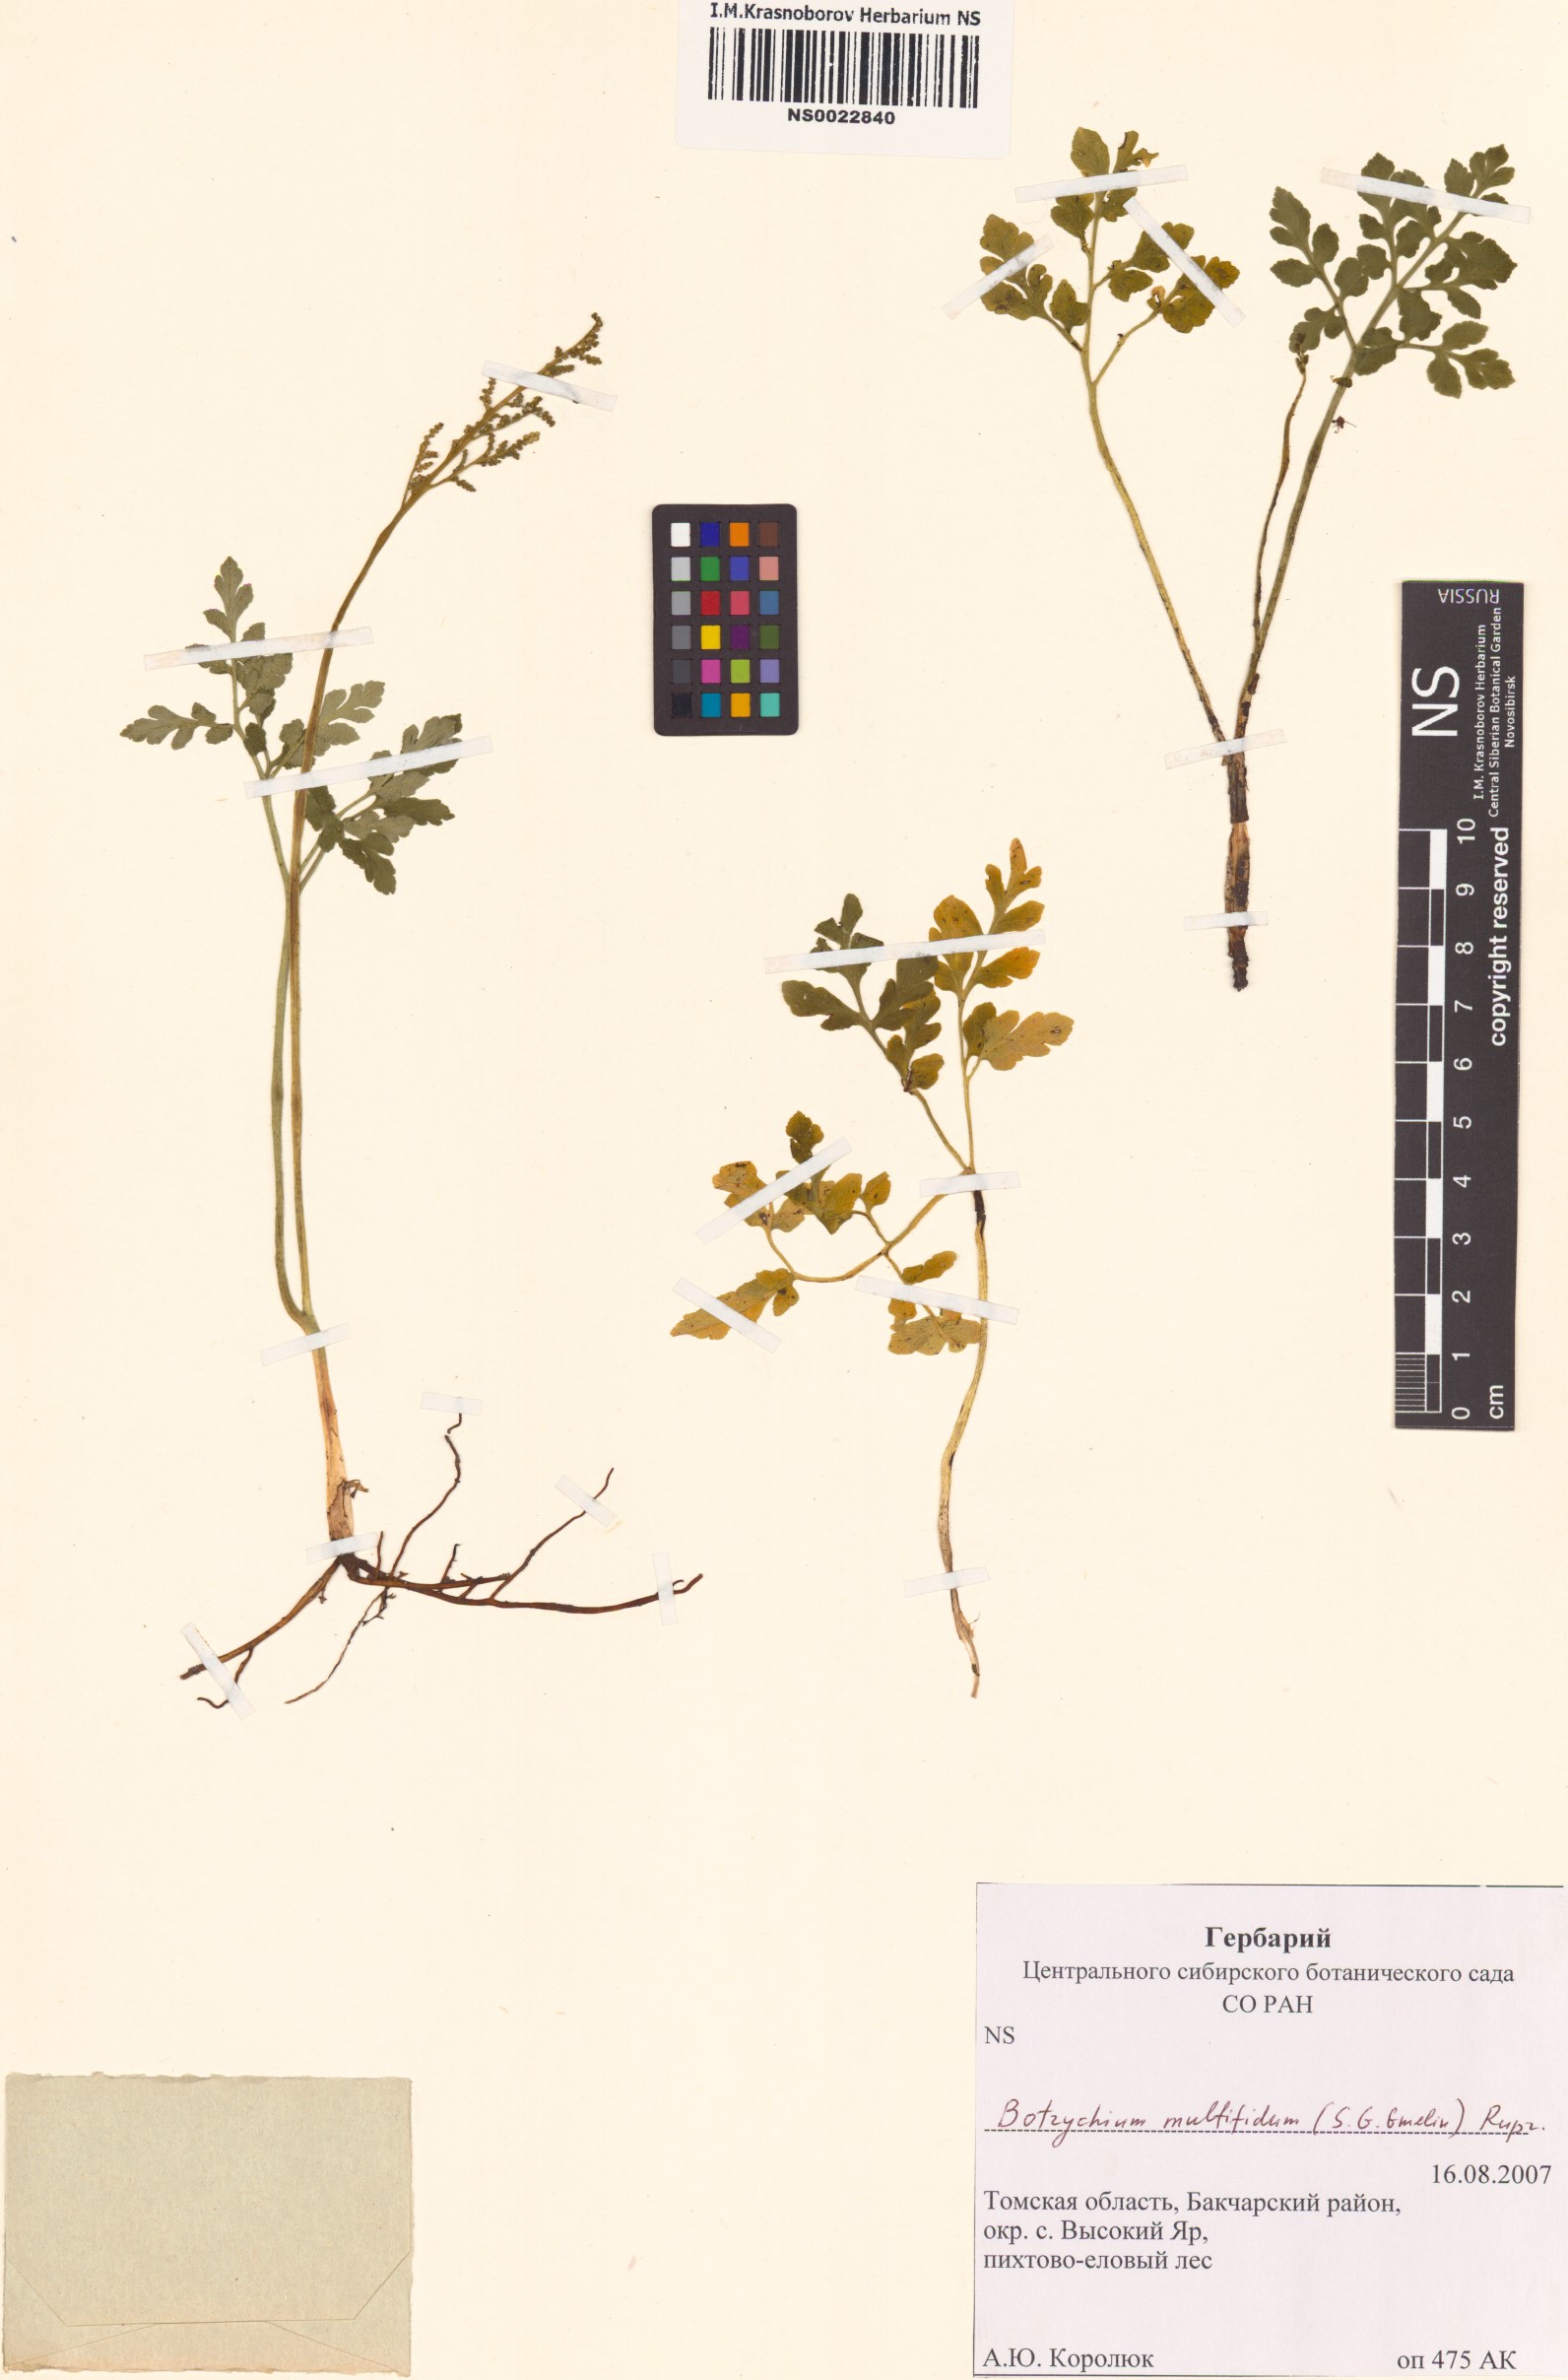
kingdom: Plantae
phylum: Tracheophyta
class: Polypodiopsida
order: Ophioglossales
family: Ophioglossaceae
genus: Sceptridium
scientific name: Sceptridium multifidum
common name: Leathery grape fern
